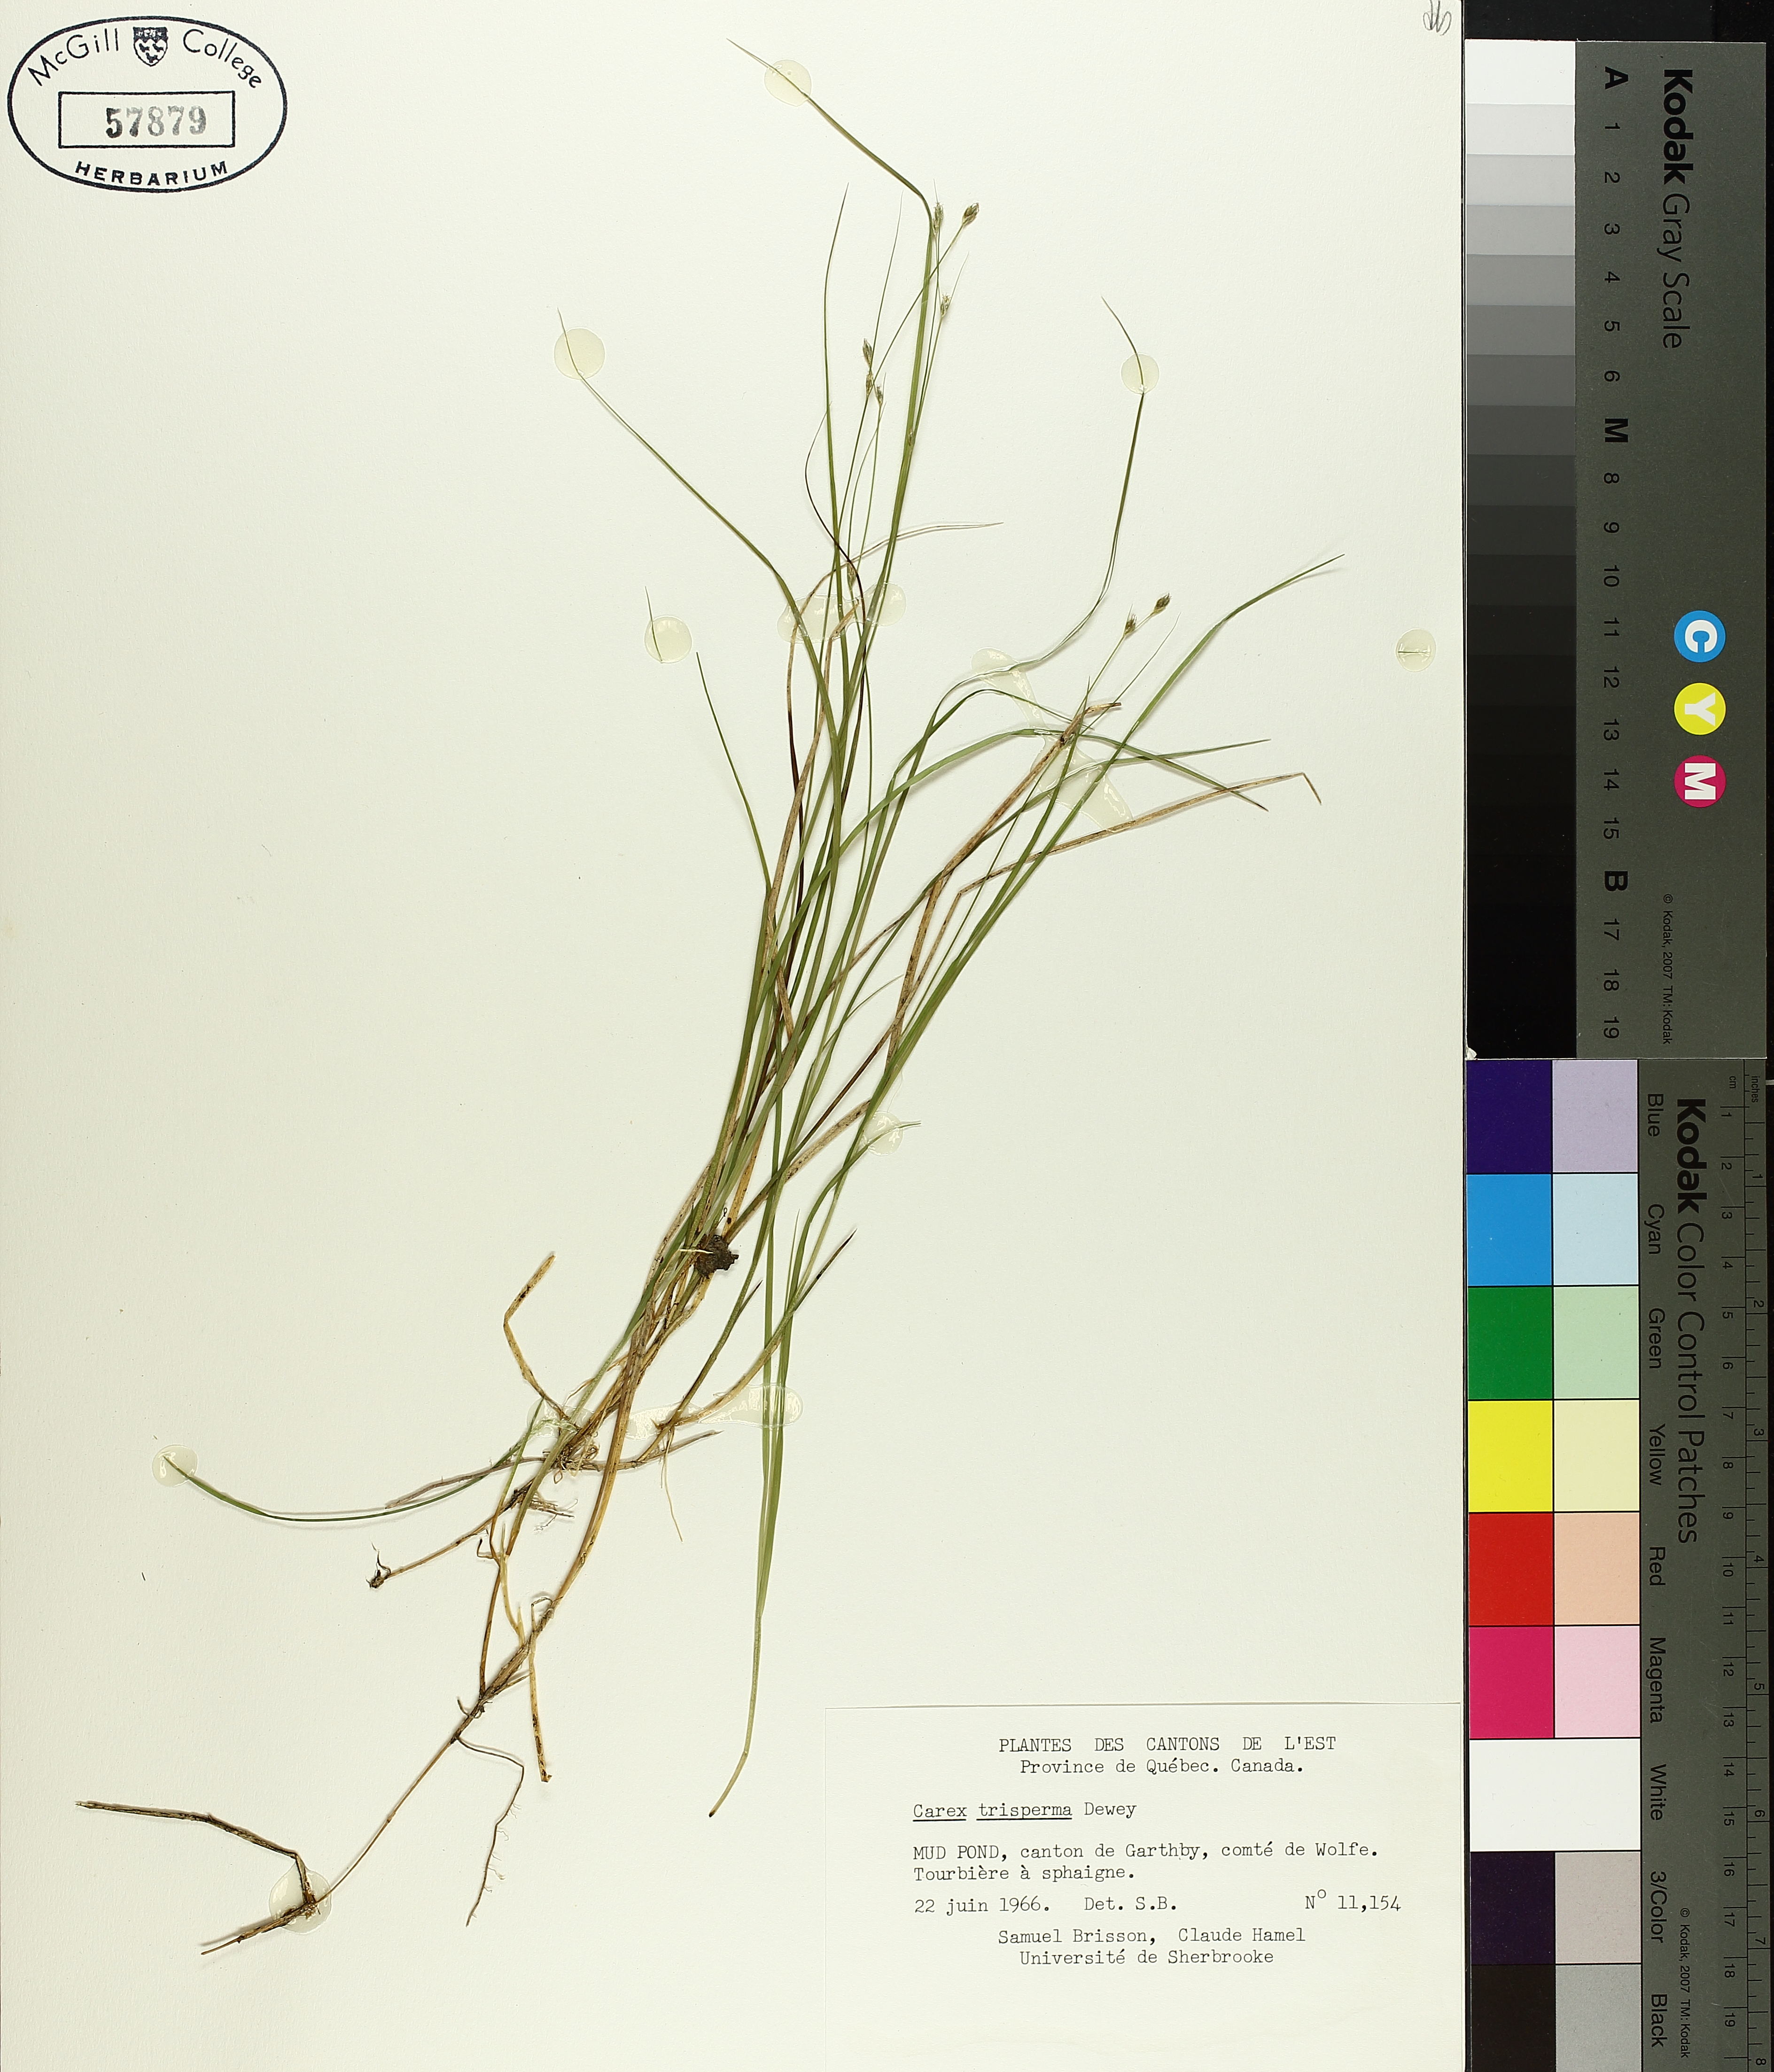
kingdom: Plantae
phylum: Tracheophyta
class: Liliopsida
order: Poales
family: Cyperaceae
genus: Carex
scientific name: Carex trisperma
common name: Three-seeded sedge
